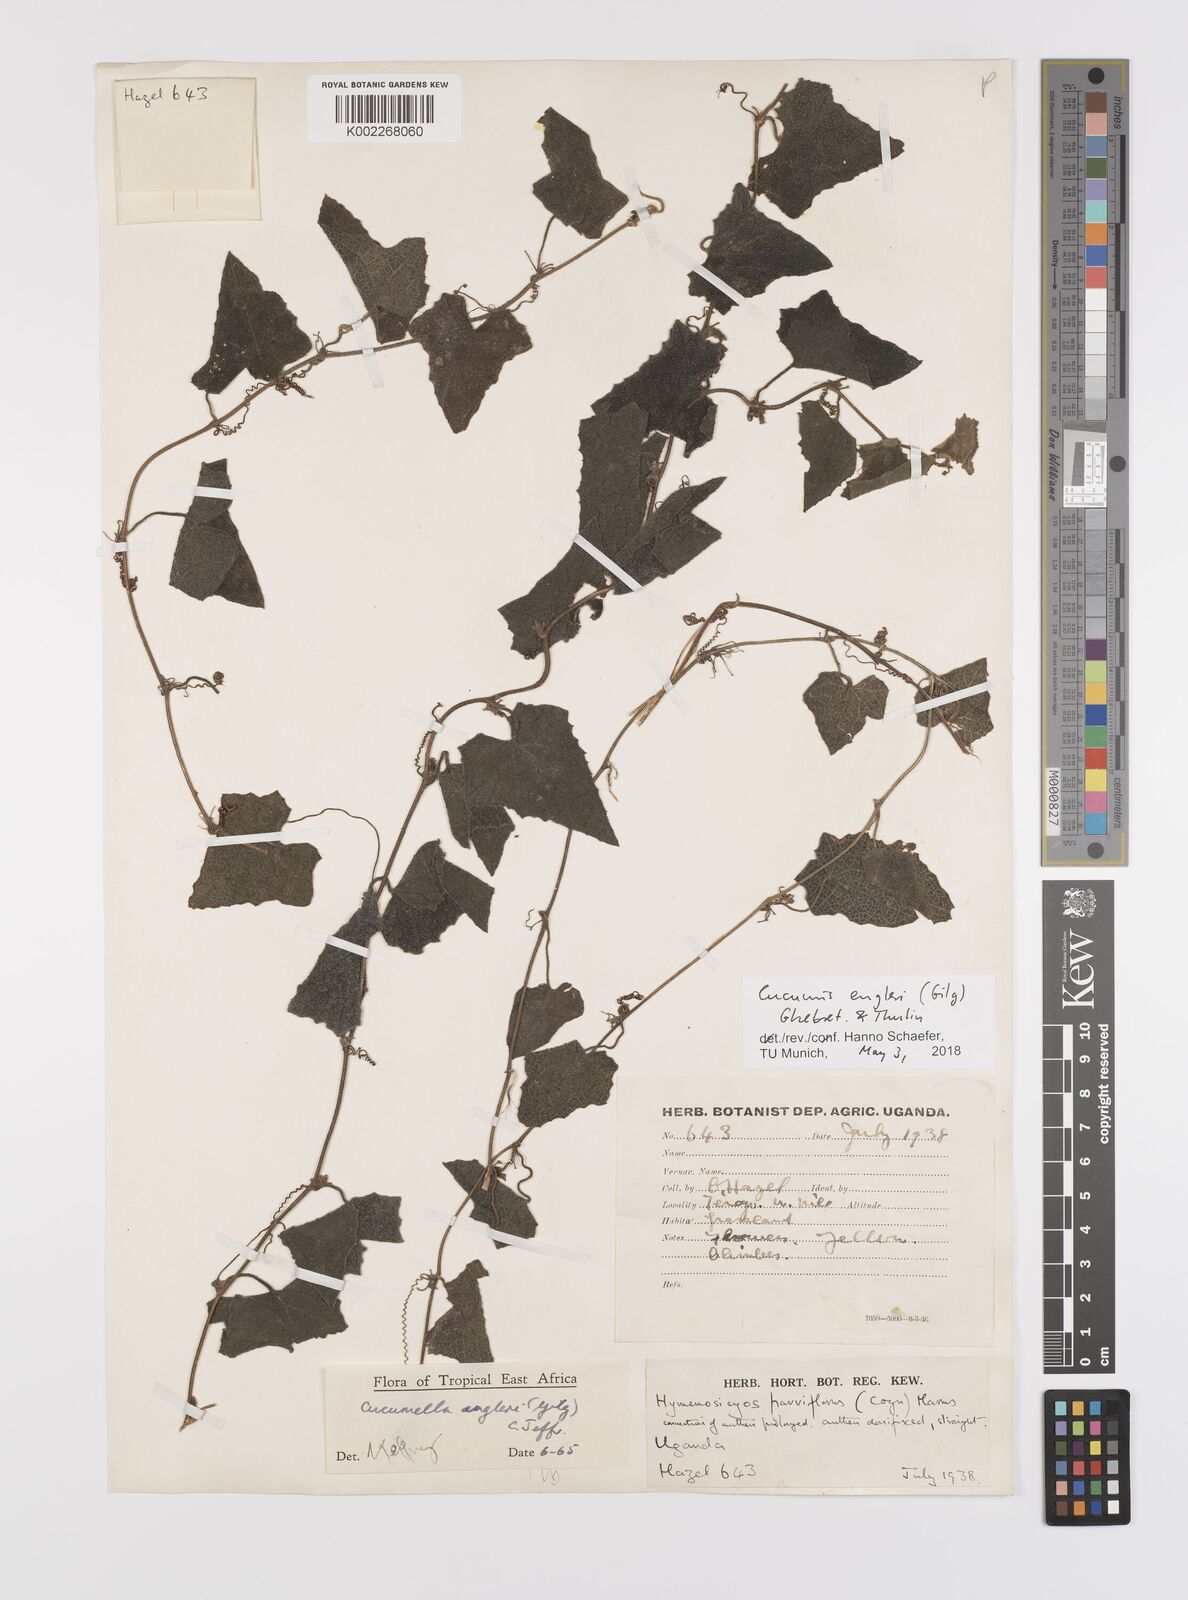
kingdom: Plantae
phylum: Tracheophyta
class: Magnoliopsida
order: Cucurbitales
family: Cucurbitaceae
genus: Cucumis
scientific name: Cucumis engleri
